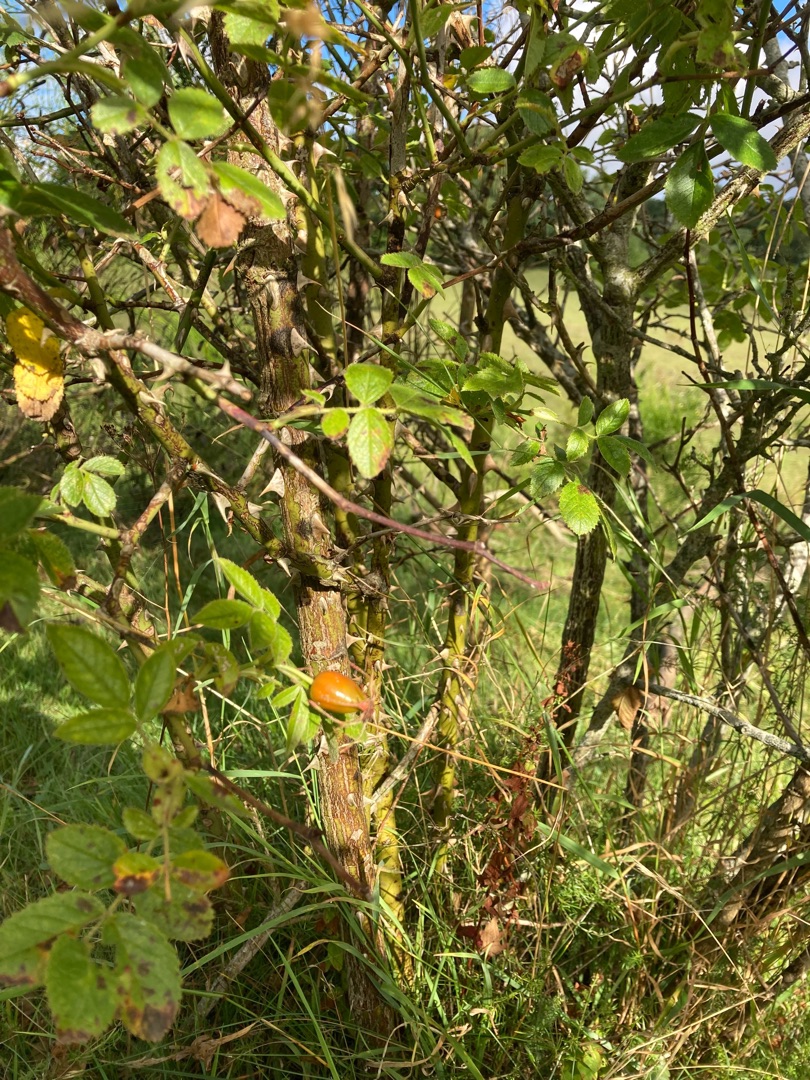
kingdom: Plantae
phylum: Tracheophyta
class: Magnoliopsida
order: Rosales
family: Rosaceae
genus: Rosa
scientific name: Rosa inodora
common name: Lugtløs æble-rose
